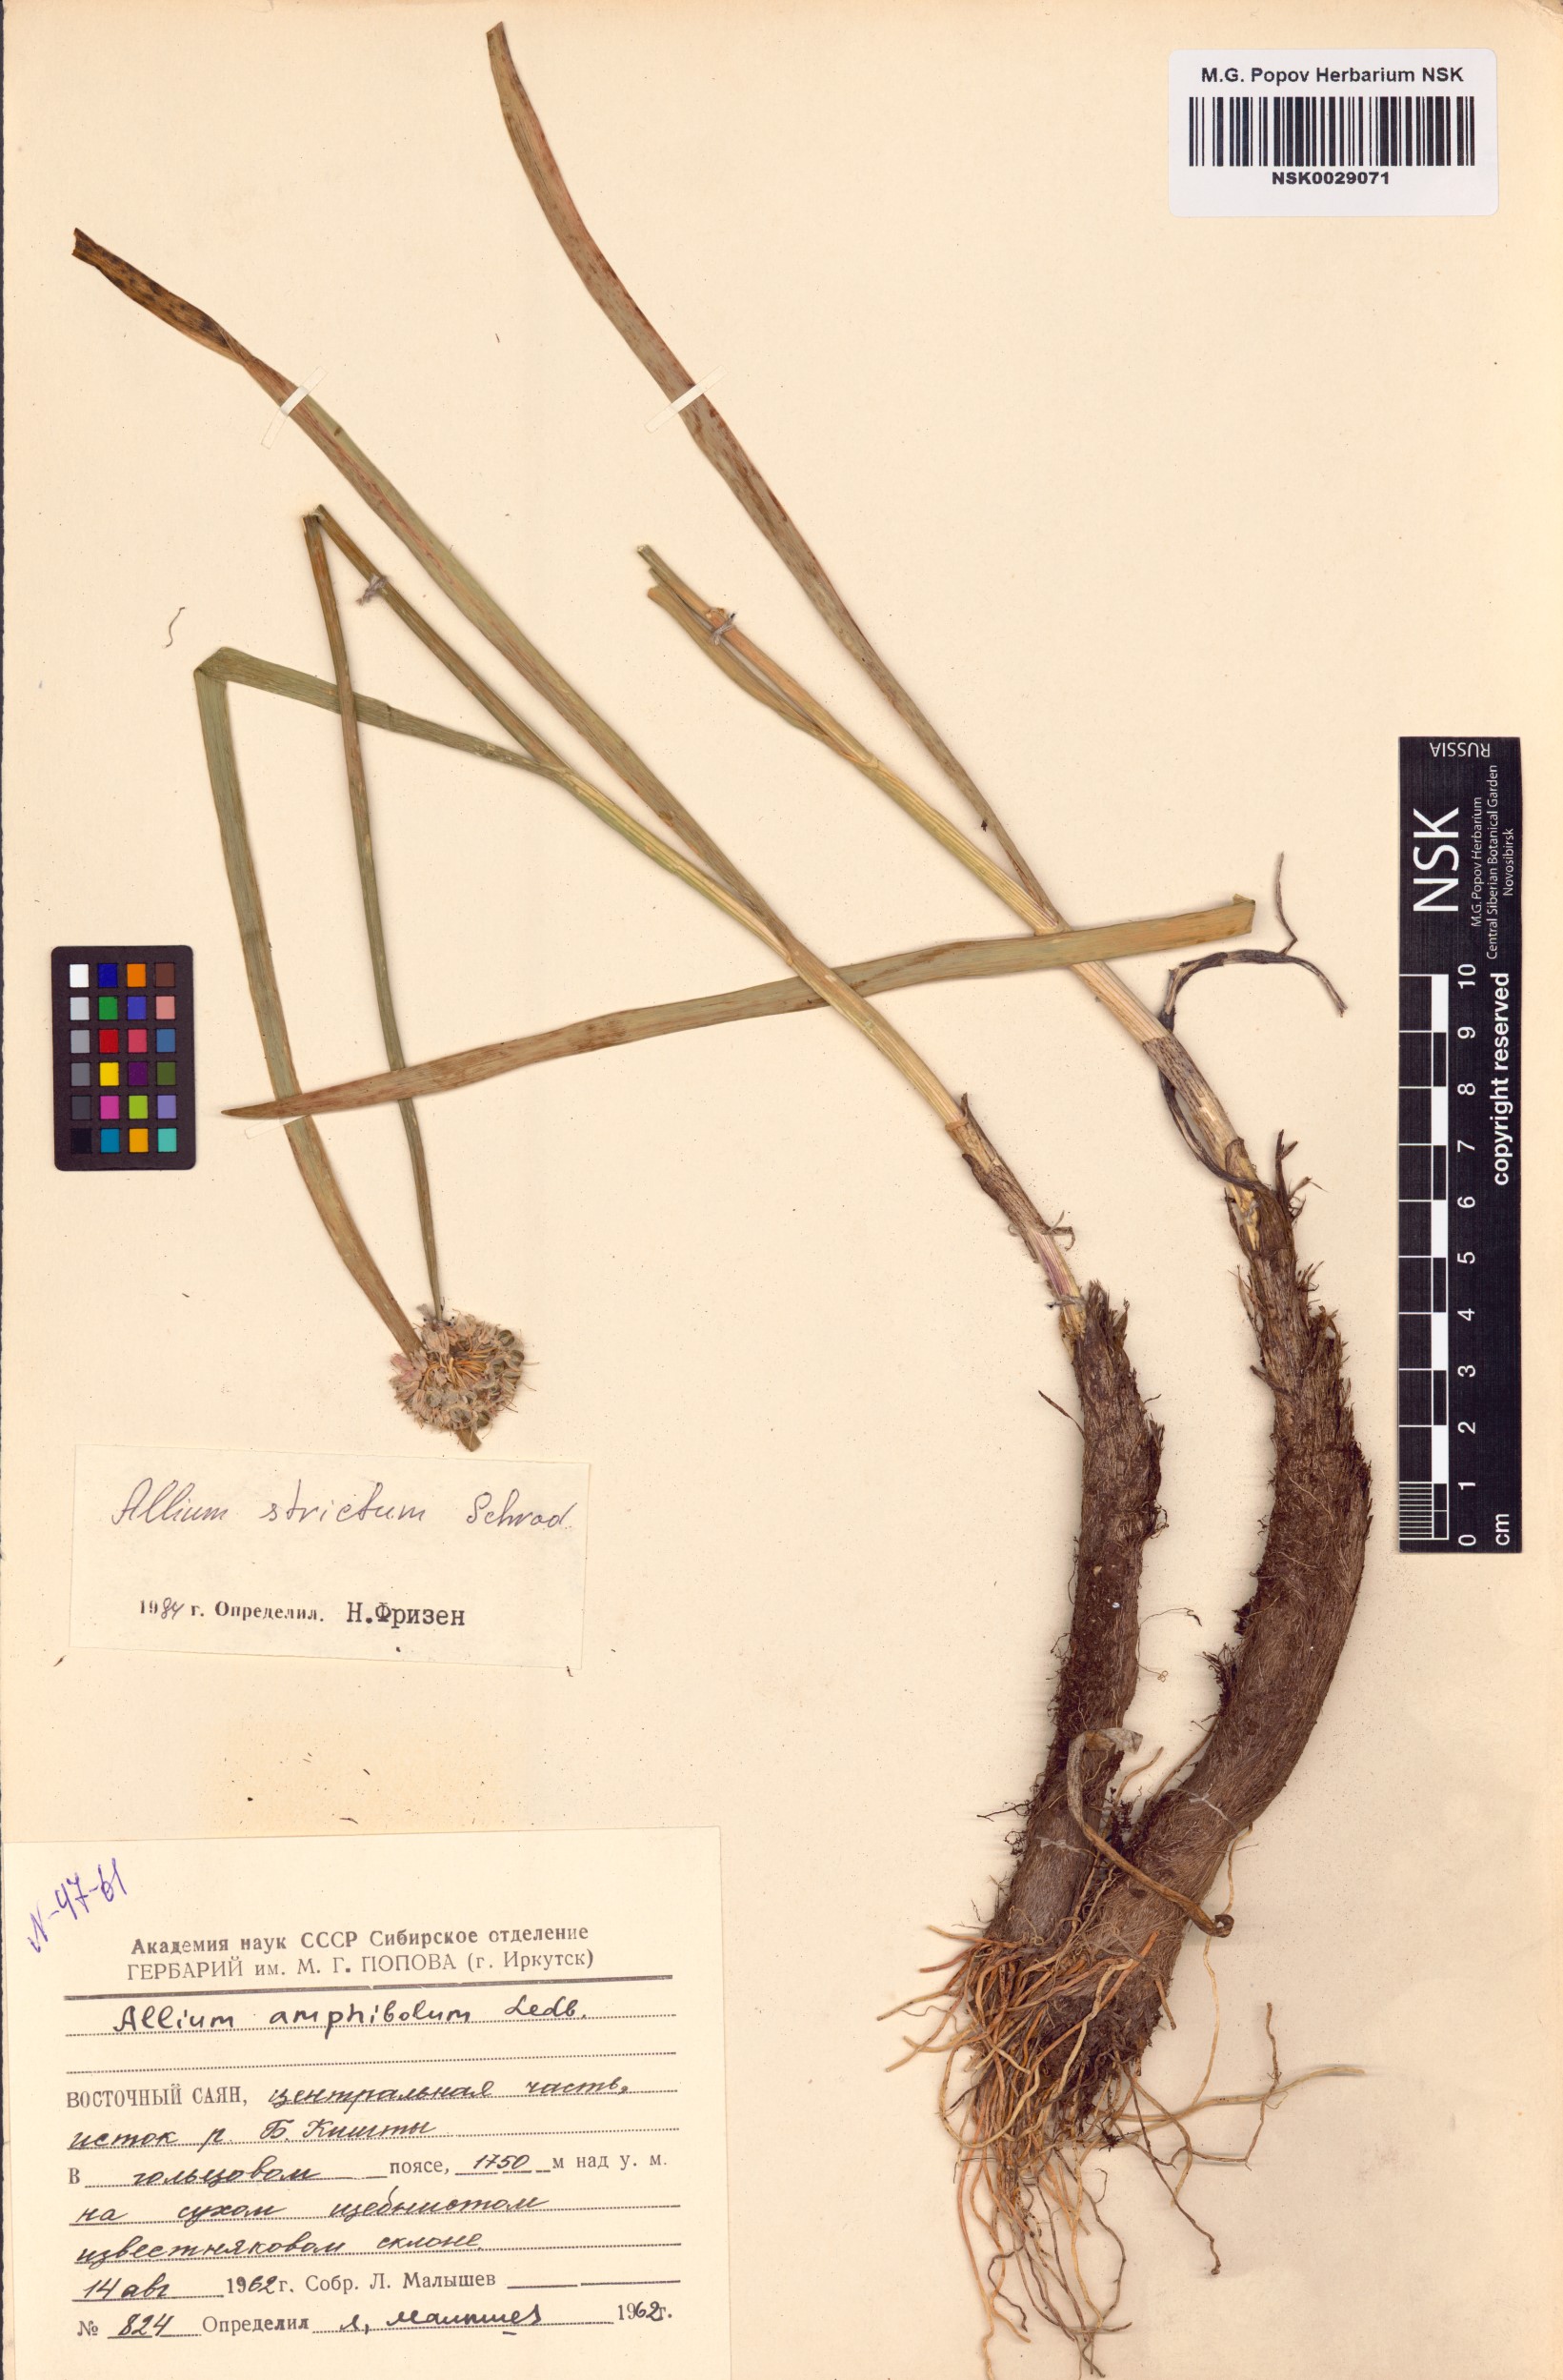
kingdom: Plantae
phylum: Tracheophyta
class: Liliopsida
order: Asparagales
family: Amaryllidaceae
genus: Allium
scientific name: Allium strictum
